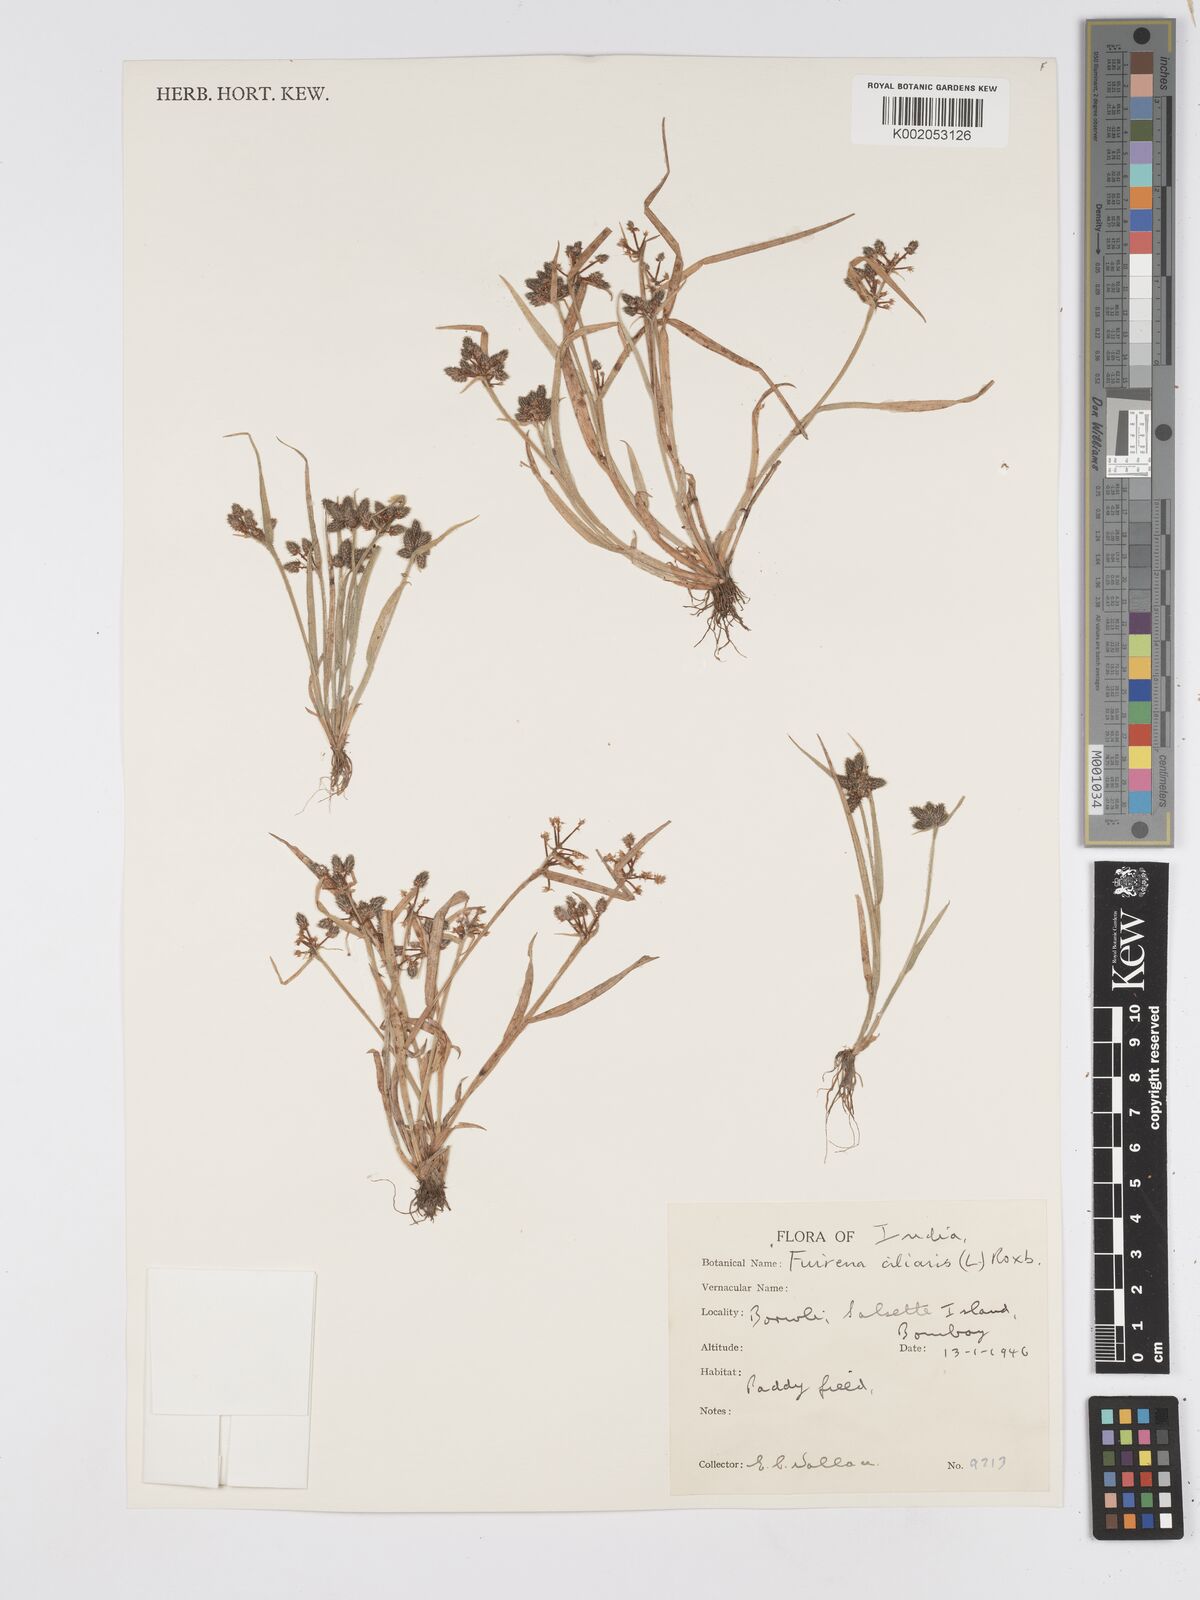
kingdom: Plantae
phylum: Tracheophyta
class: Liliopsida
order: Poales
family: Cyperaceae
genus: Fuirena
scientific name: Fuirena ciliaris
